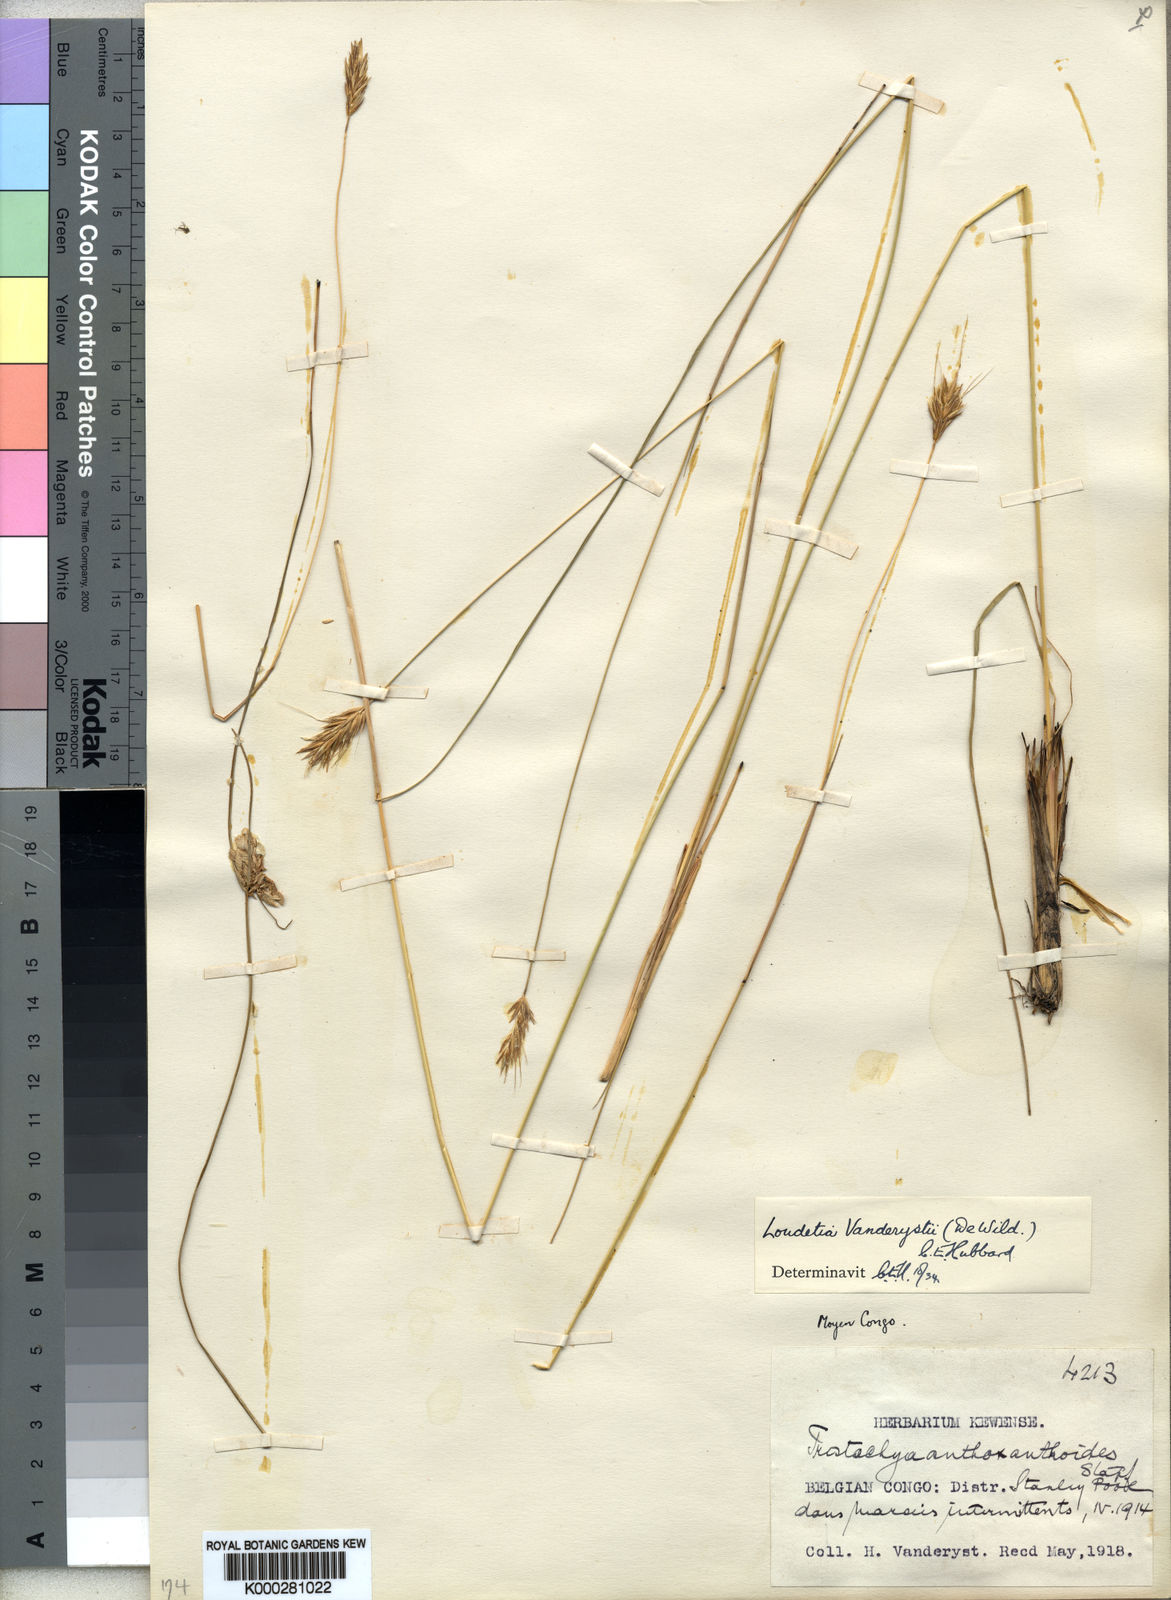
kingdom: Plantae
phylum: Tracheophyta
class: Liliopsida
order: Poales
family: Poaceae
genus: Loudetia
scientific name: Loudetia vanderystii
